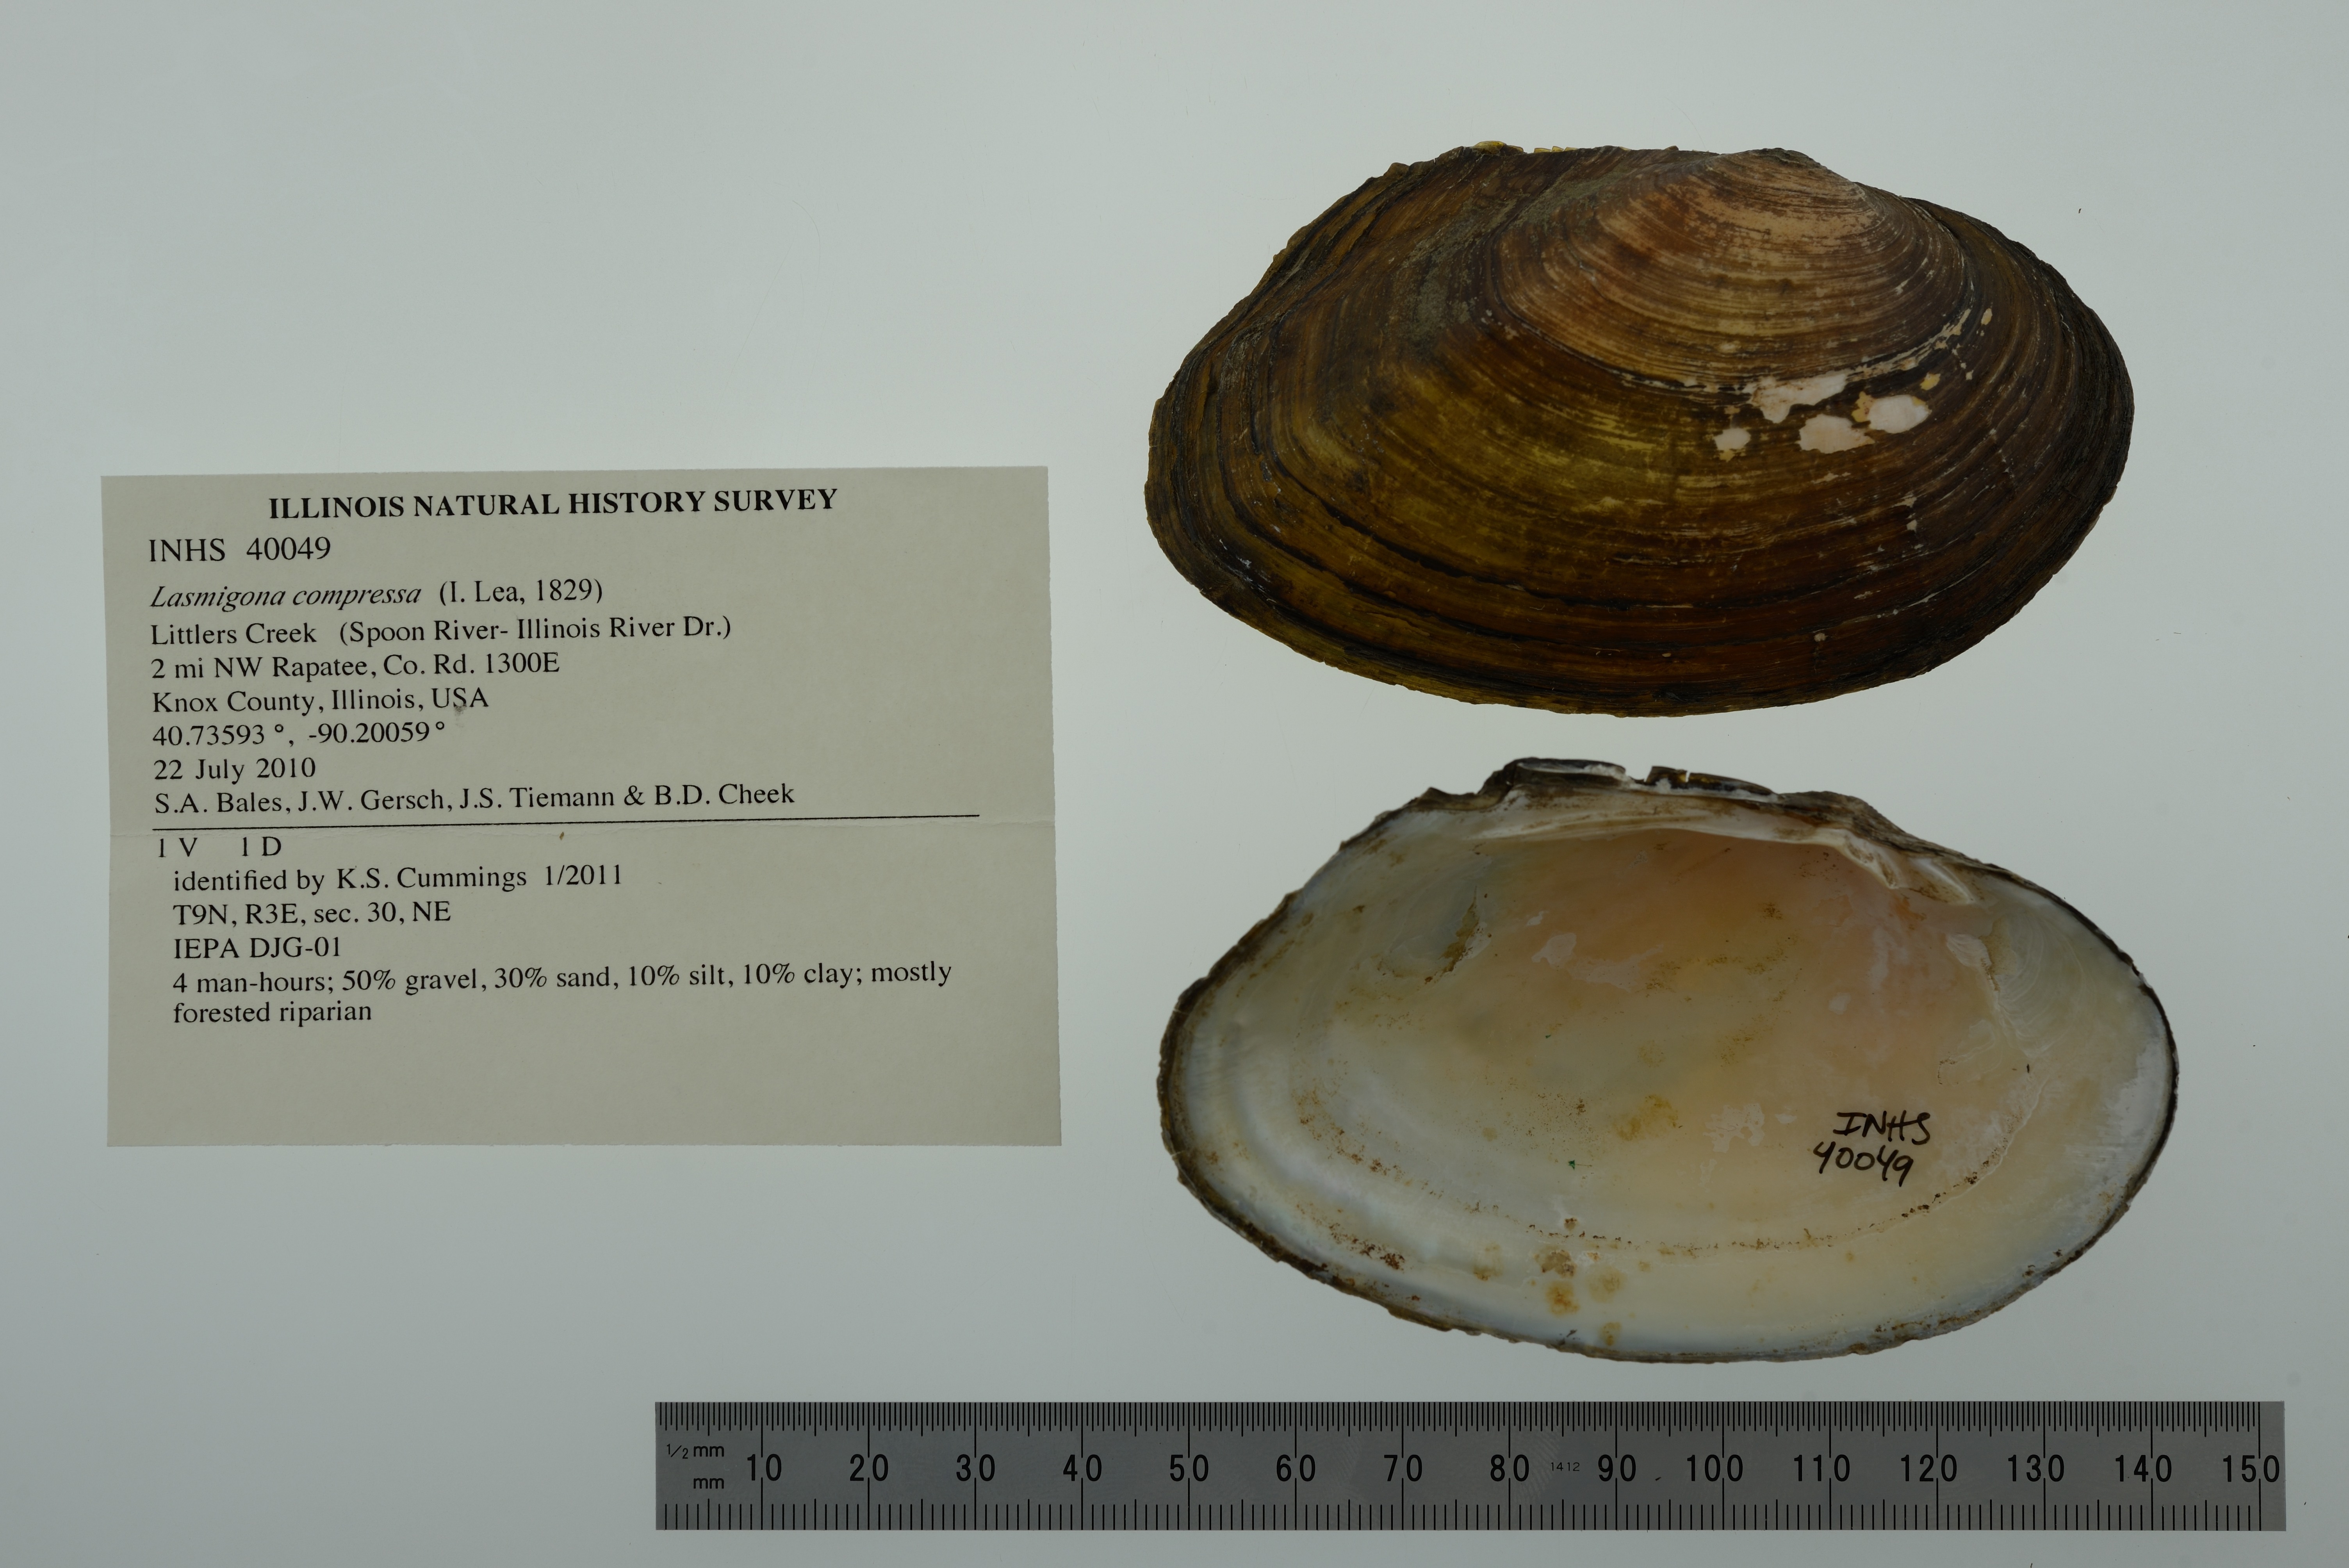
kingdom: Animalia
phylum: Mollusca
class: Bivalvia
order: Unionida
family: Unionidae
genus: Lasmigona
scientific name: Lasmigona compressa
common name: Creek heelsplitter
